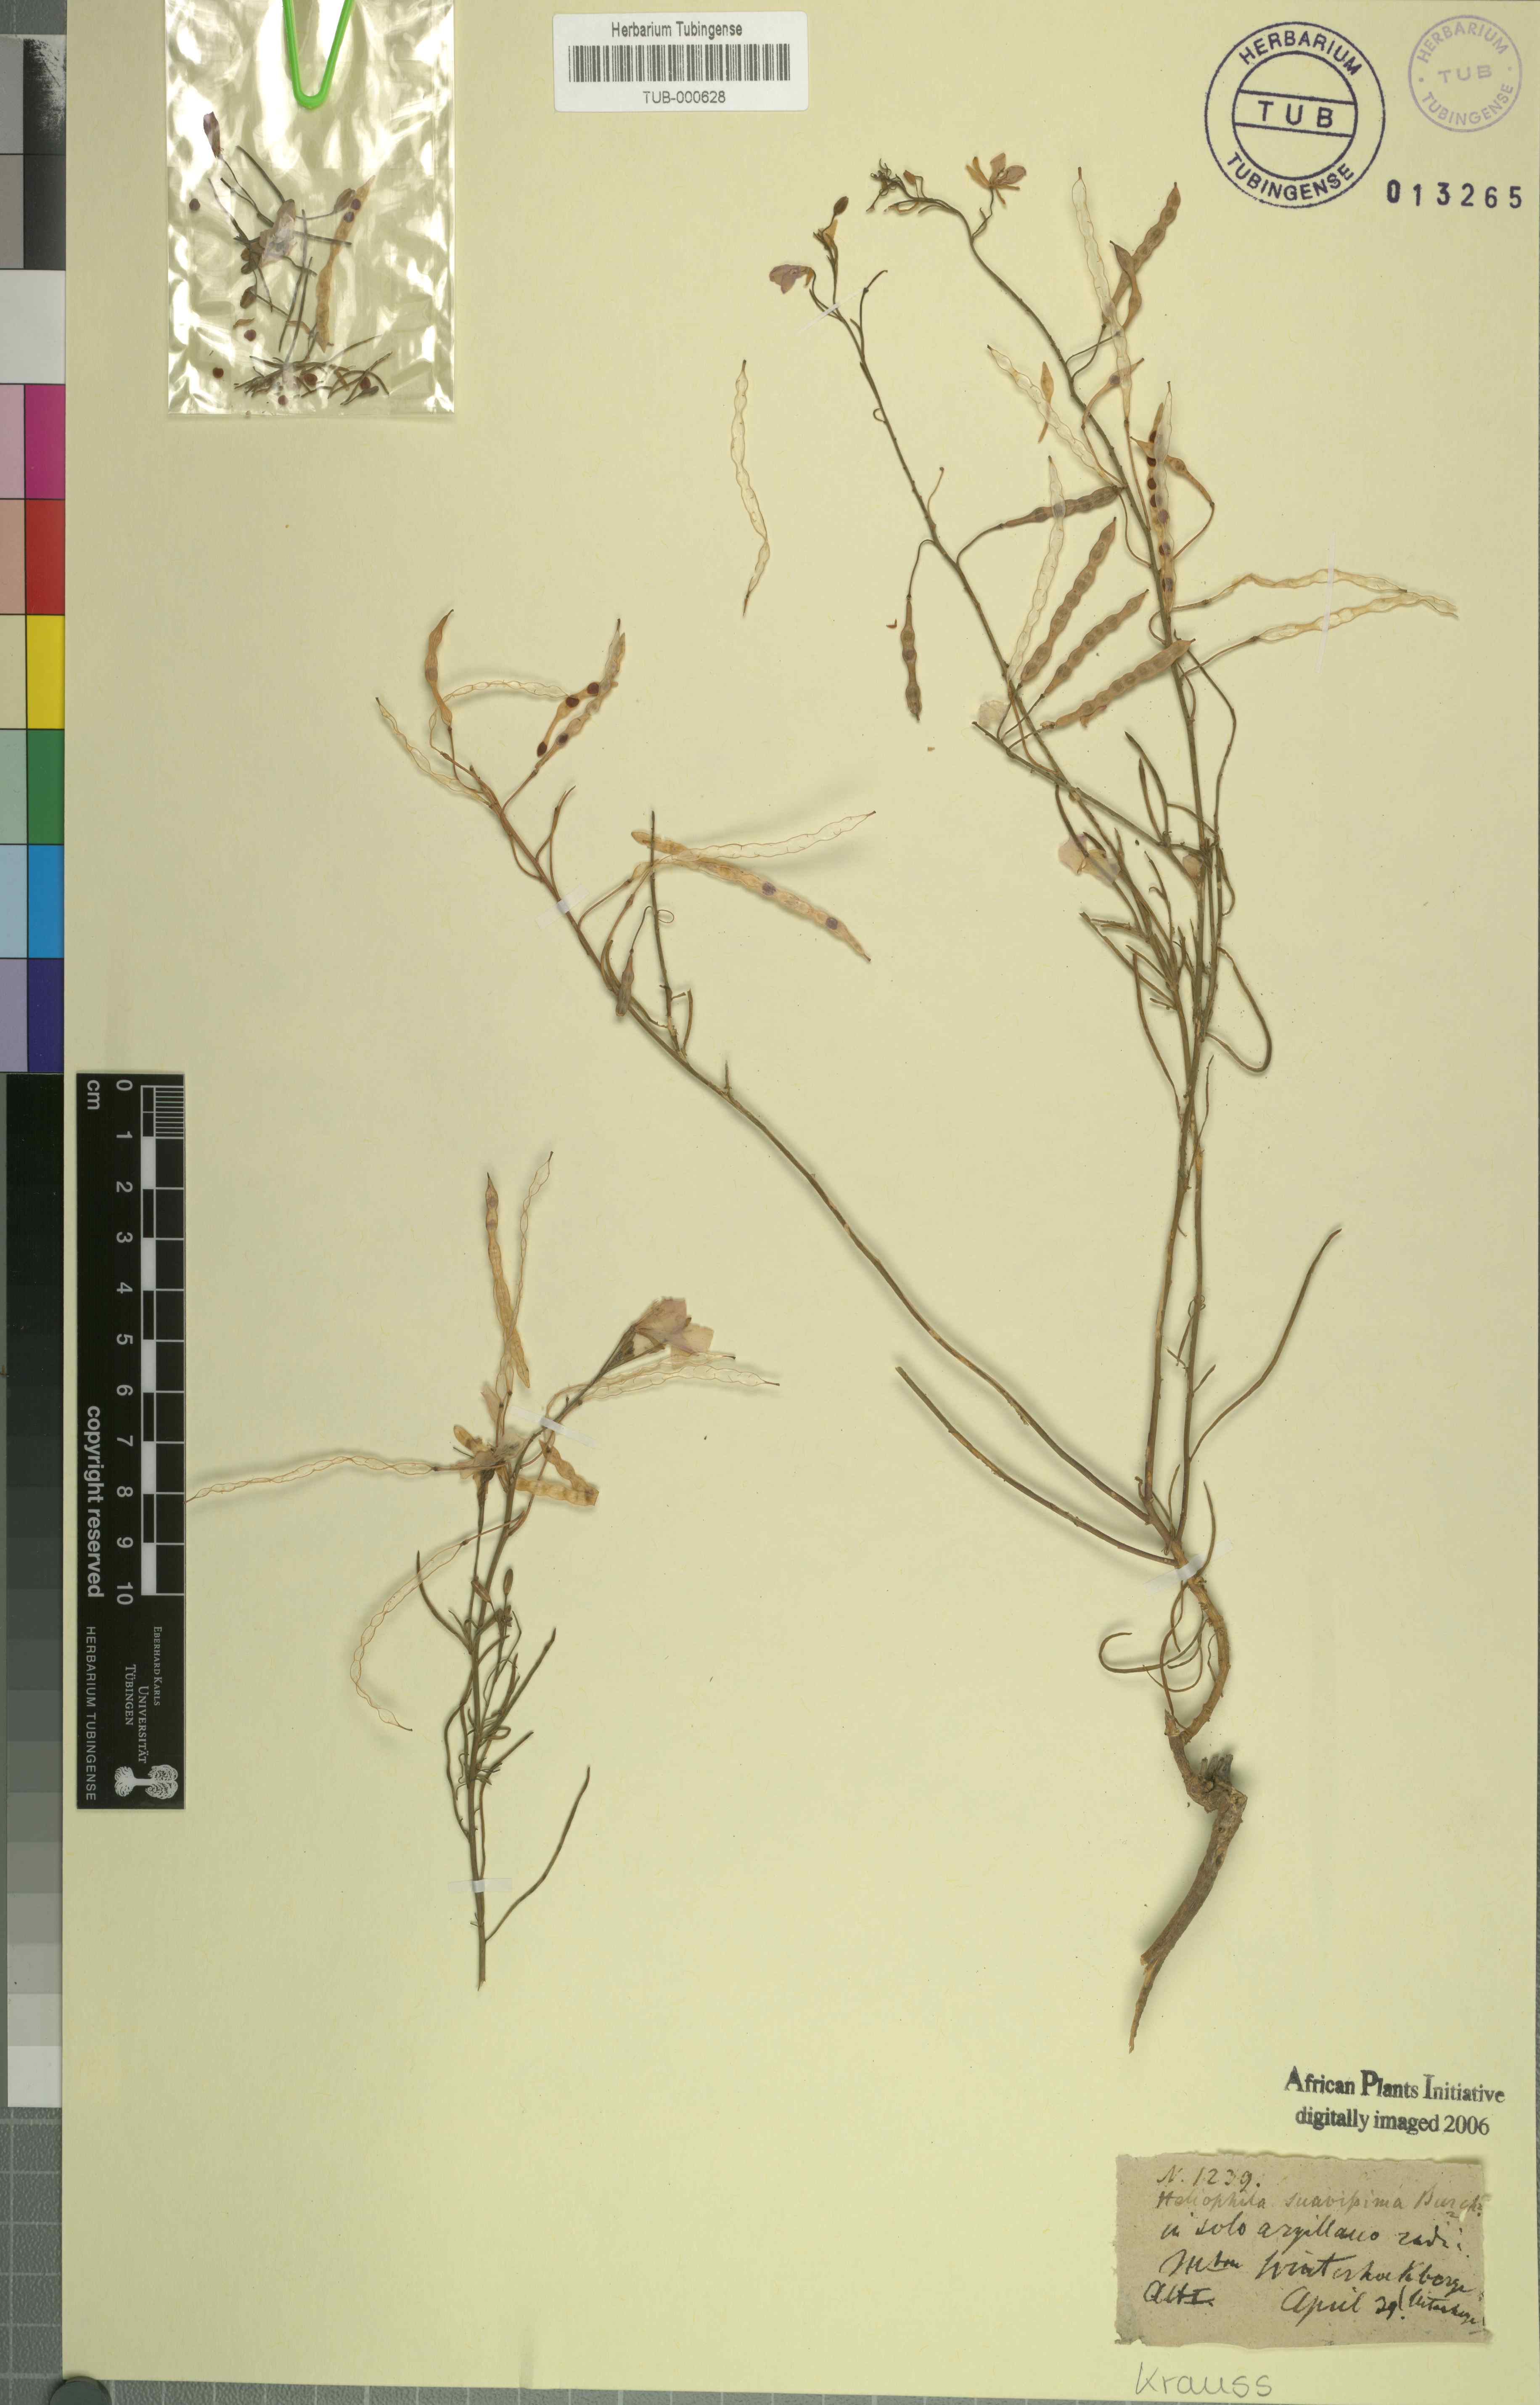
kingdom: Plantae
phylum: Tracheophyta
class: Magnoliopsida
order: Brassicales
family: Brassicaceae
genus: Heliophila
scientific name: Heliophila suavissima
